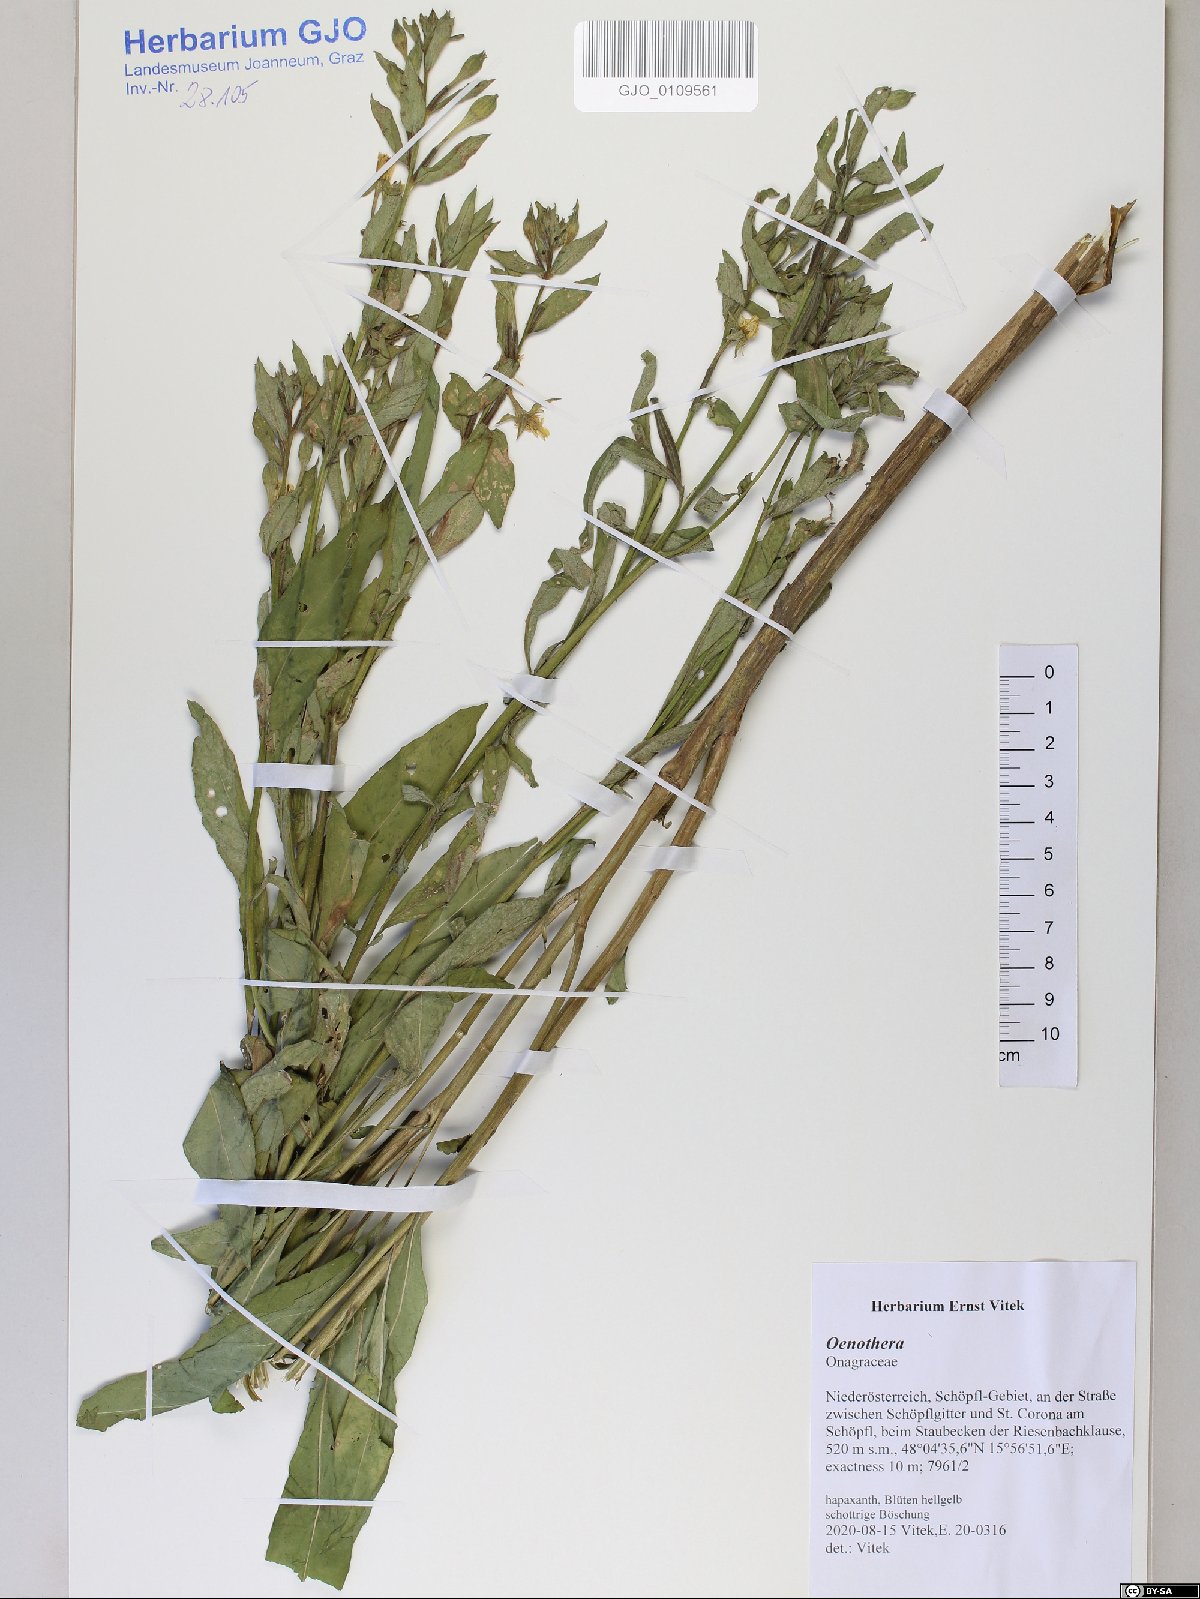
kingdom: Plantae
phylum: Tracheophyta
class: Magnoliopsida
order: Myrtales
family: Onagraceae
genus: Oenothera
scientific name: Oenothera
